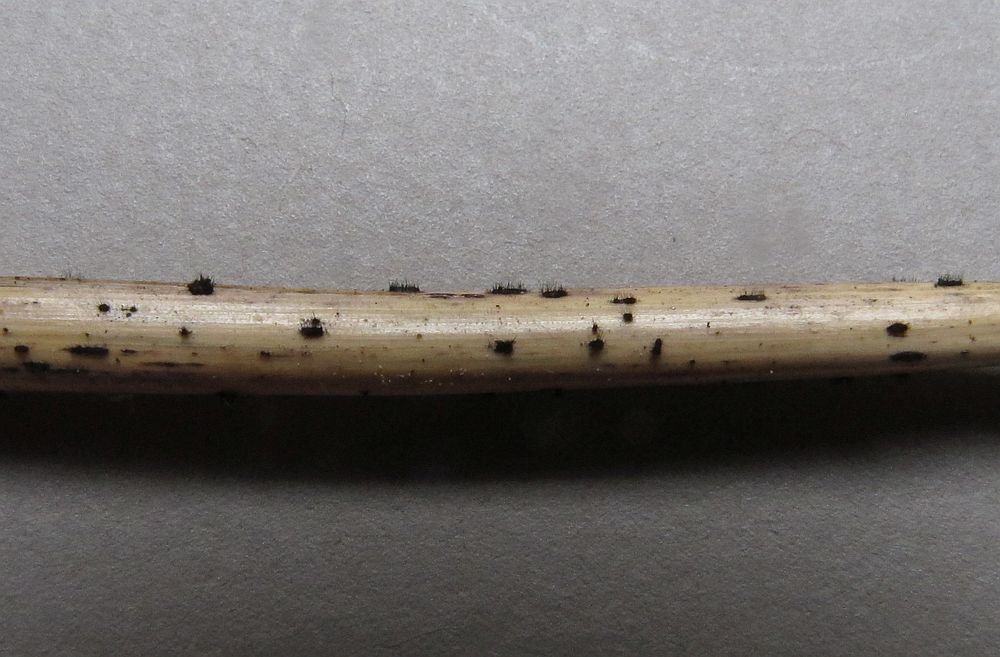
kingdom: Fungi
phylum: Ascomycota
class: Sordariomycetes
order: Chaetosphaeriales
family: Chaetosphaeriaceae
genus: Pseudolachnea
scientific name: Pseudolachnea hispidula
